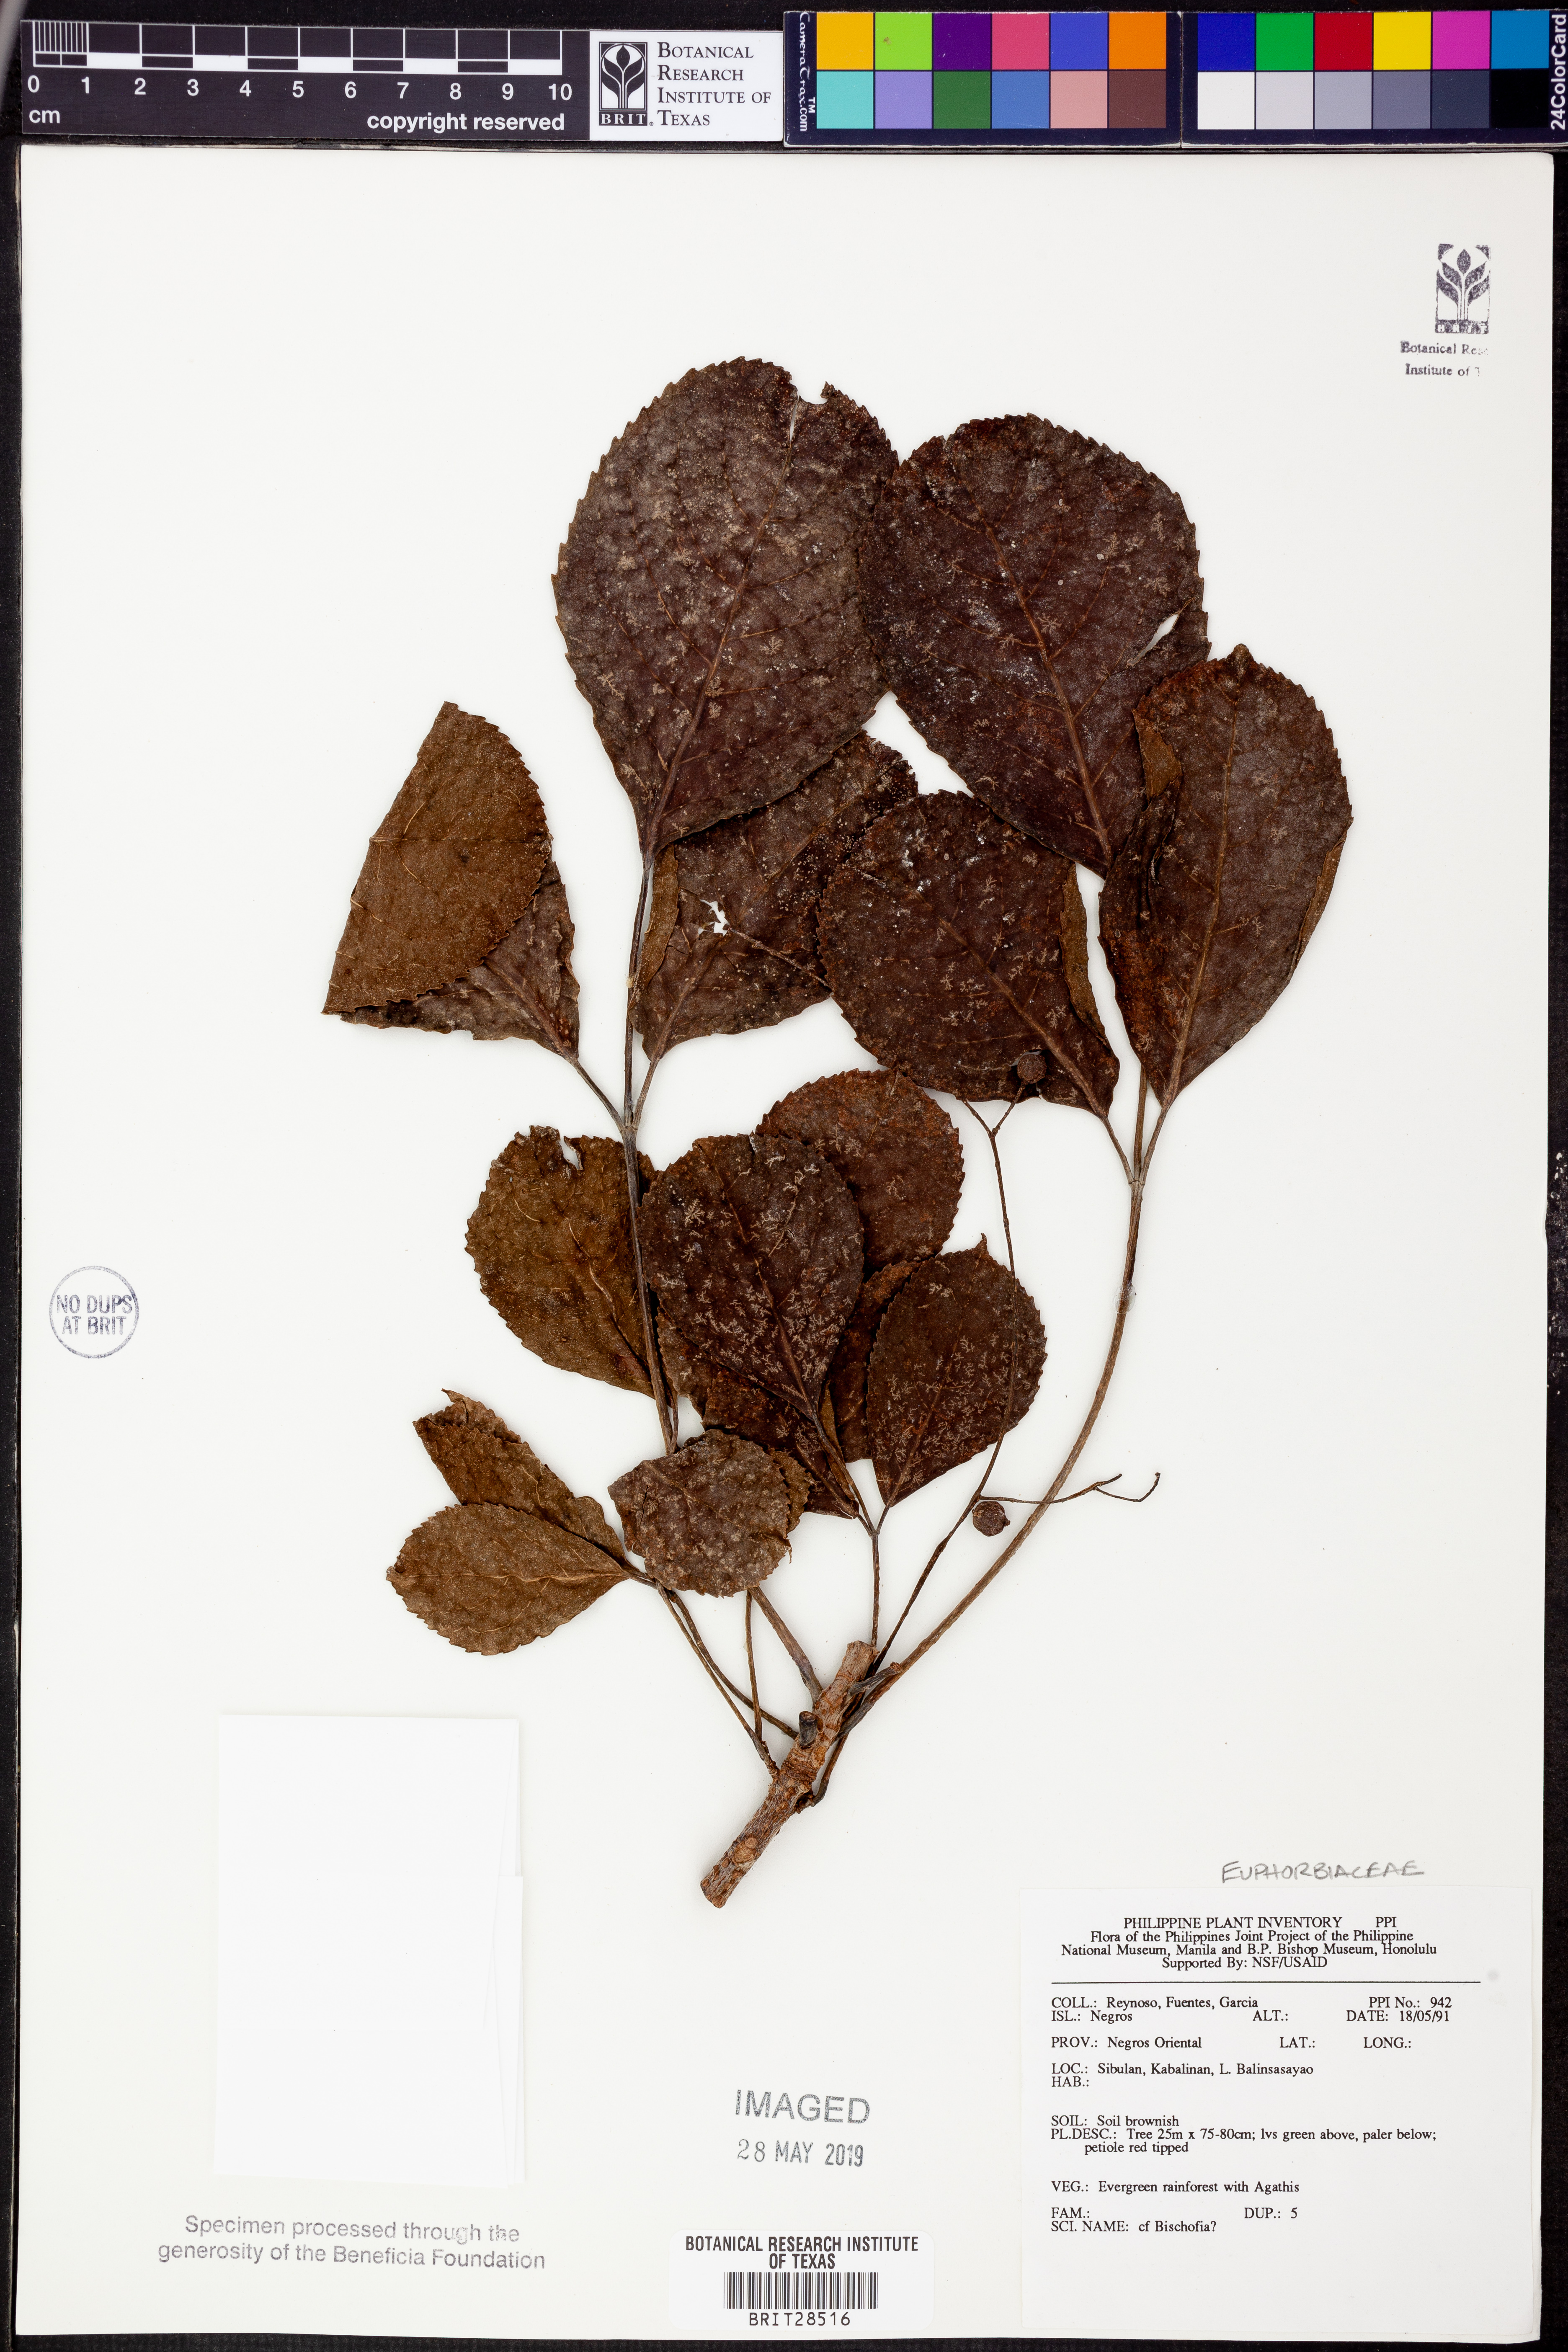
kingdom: Plantae
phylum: Tracheophyta
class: Magnoliopsida
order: Malpighiales
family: Phyllanthaceae
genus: Bischofia
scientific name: Bischofia
